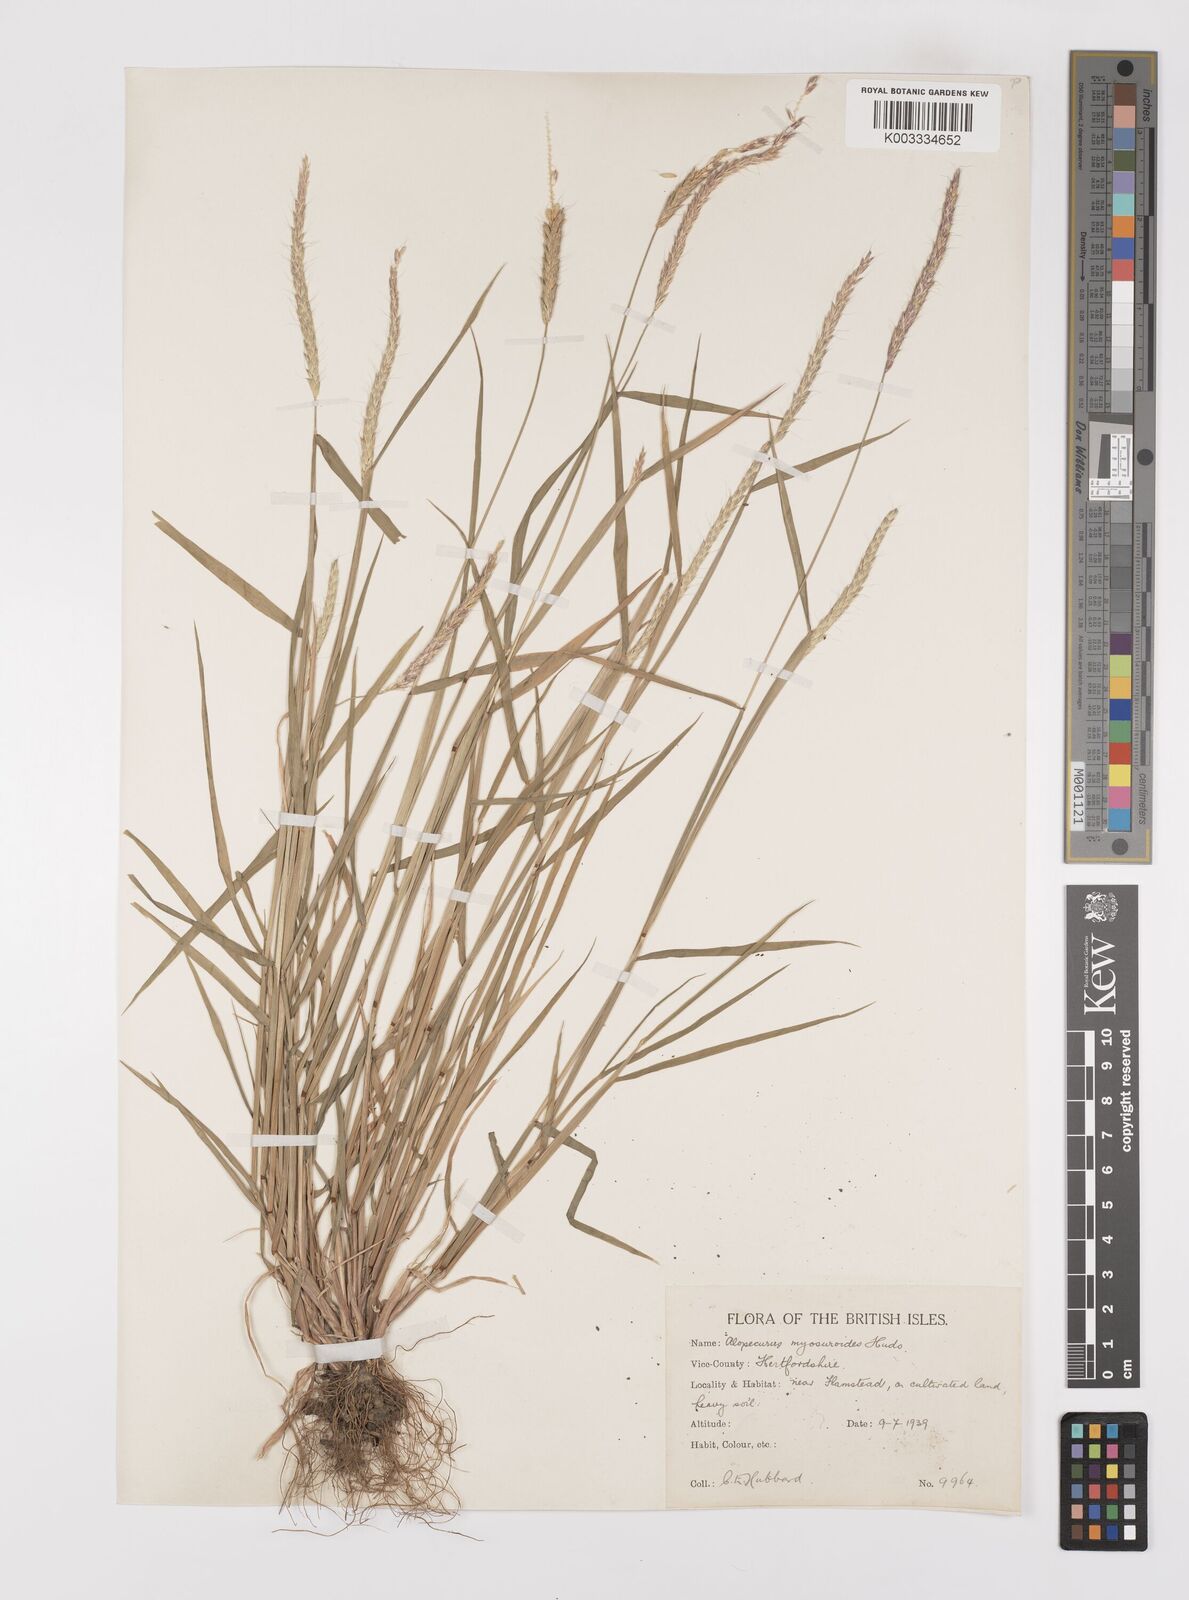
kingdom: Plantae
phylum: Tracheophyta
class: Liliopsida
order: Poales
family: Poaceae
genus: Alopecurus
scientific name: Alopecurus myosuroides
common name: Black-grass
